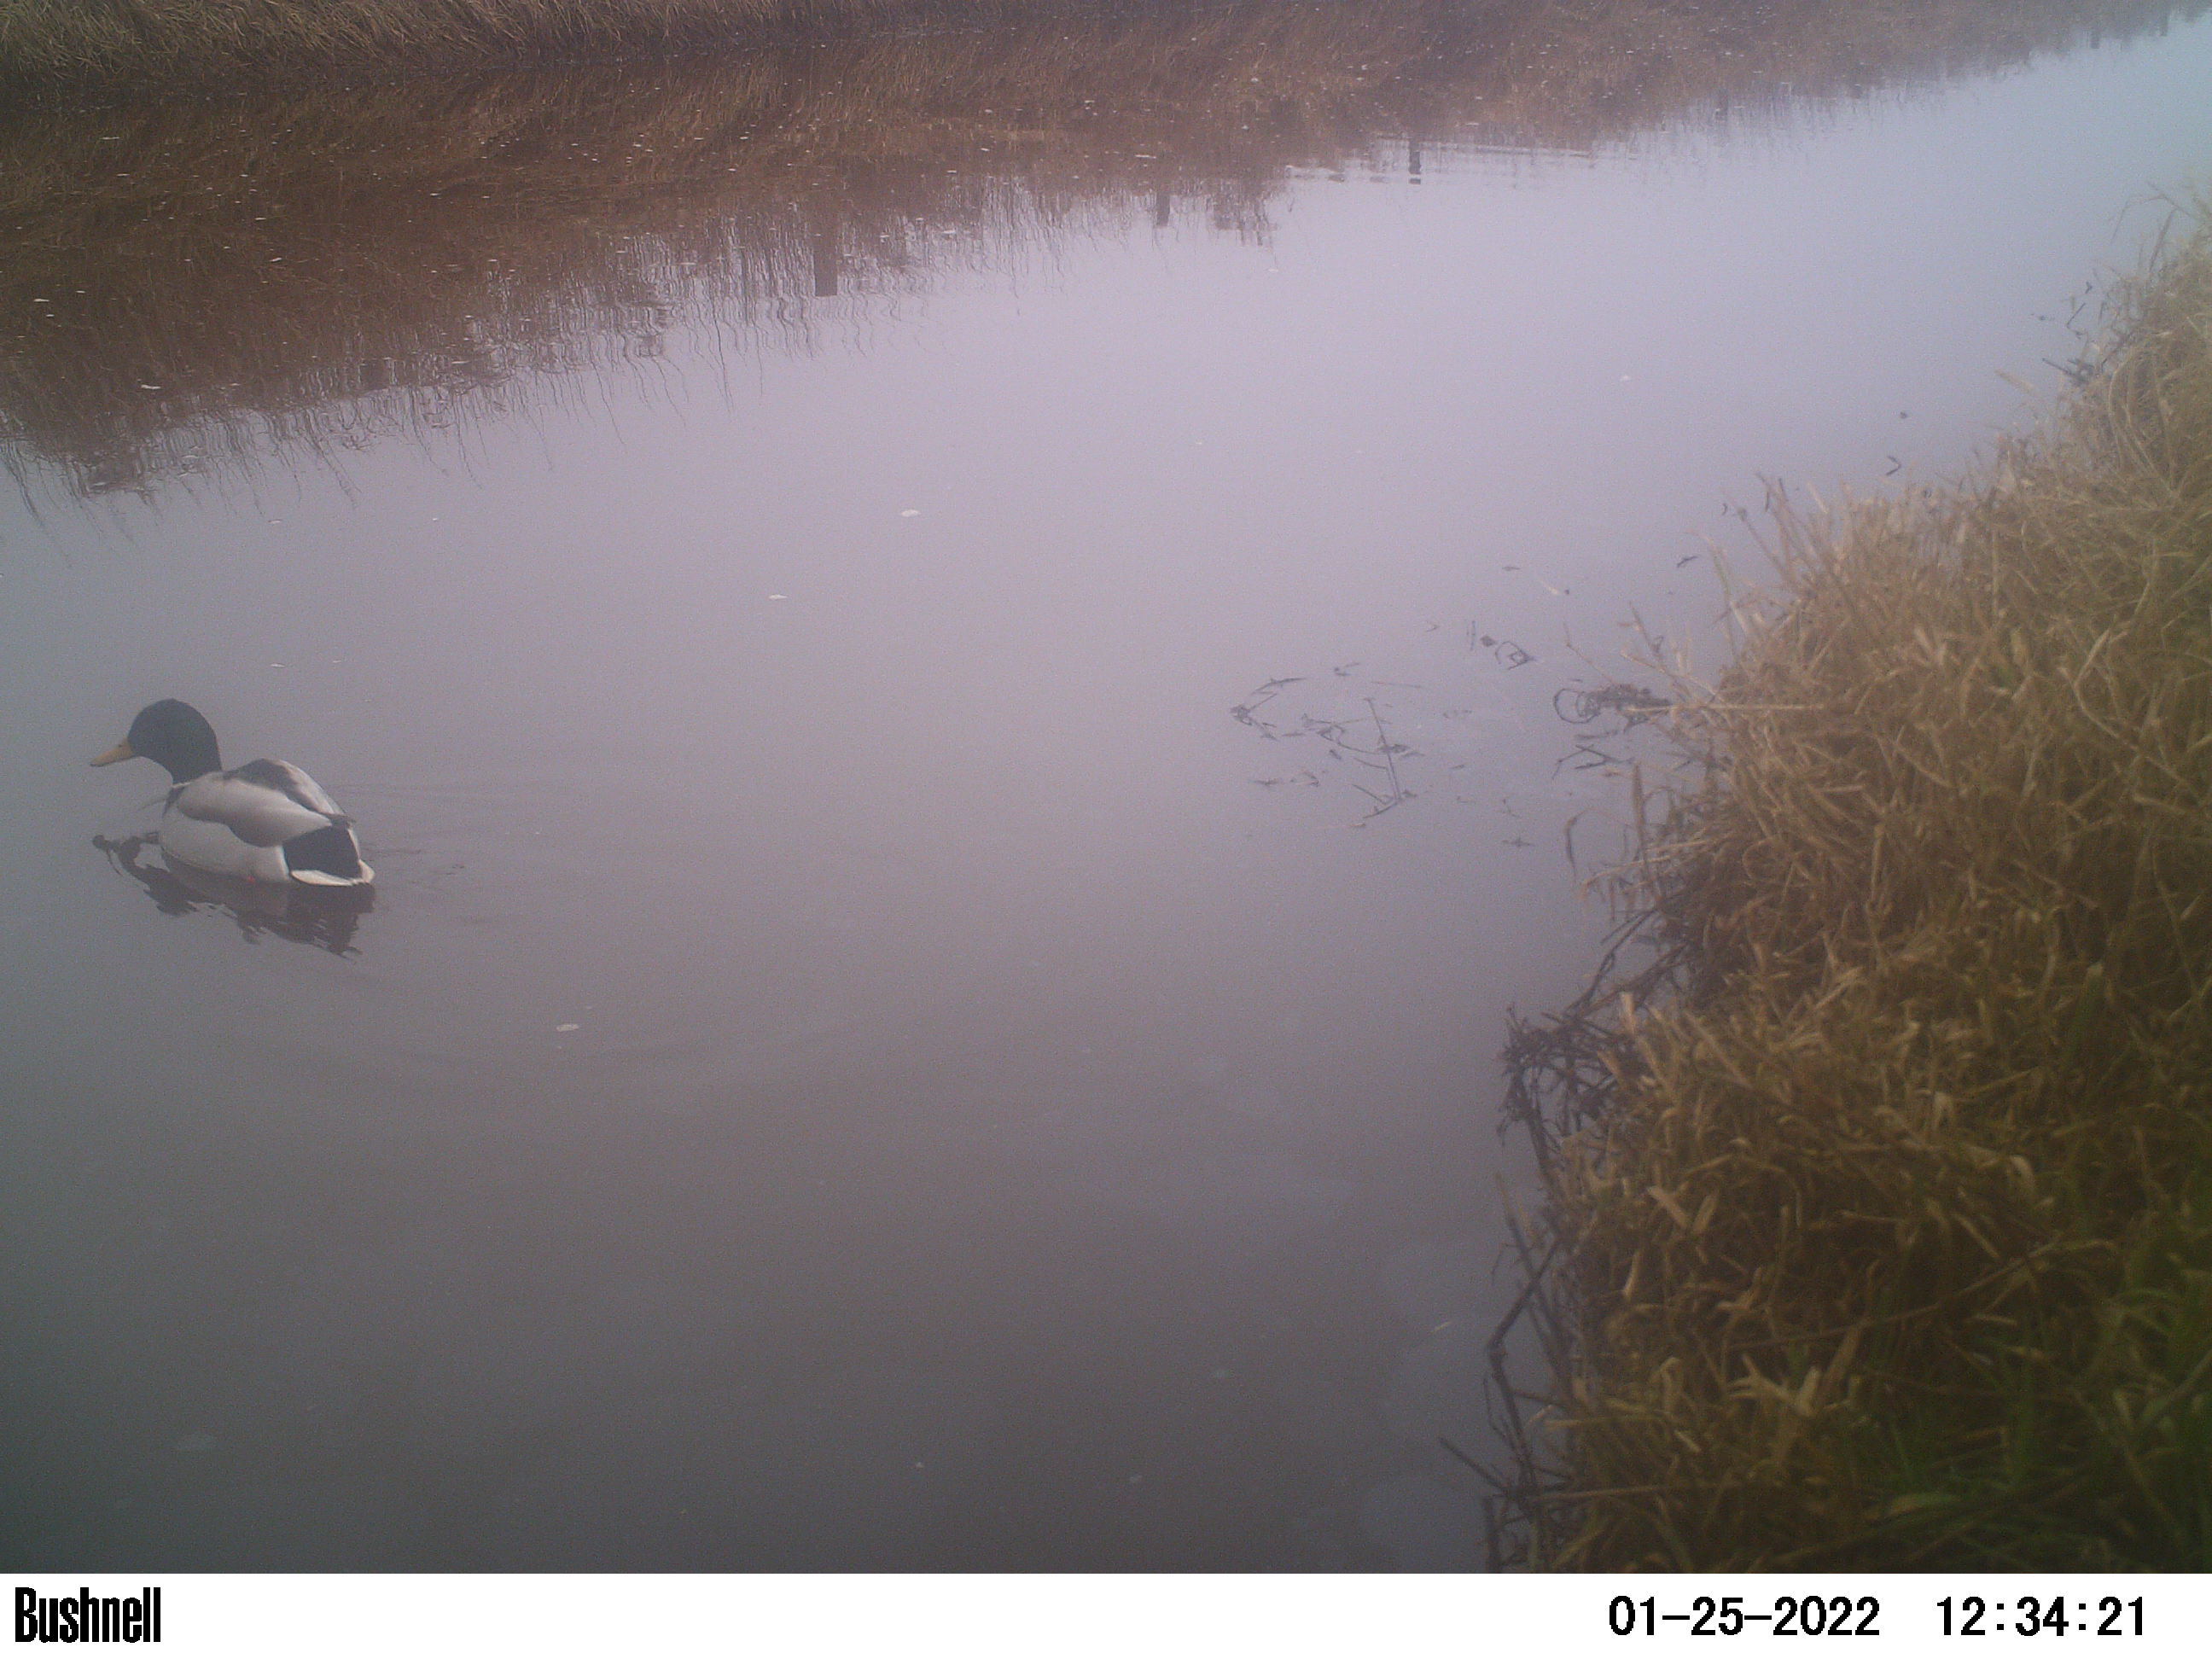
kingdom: Animalia
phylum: Chordata
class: Aves
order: Anseriformes
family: Anatidae
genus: Anas
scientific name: Anas
